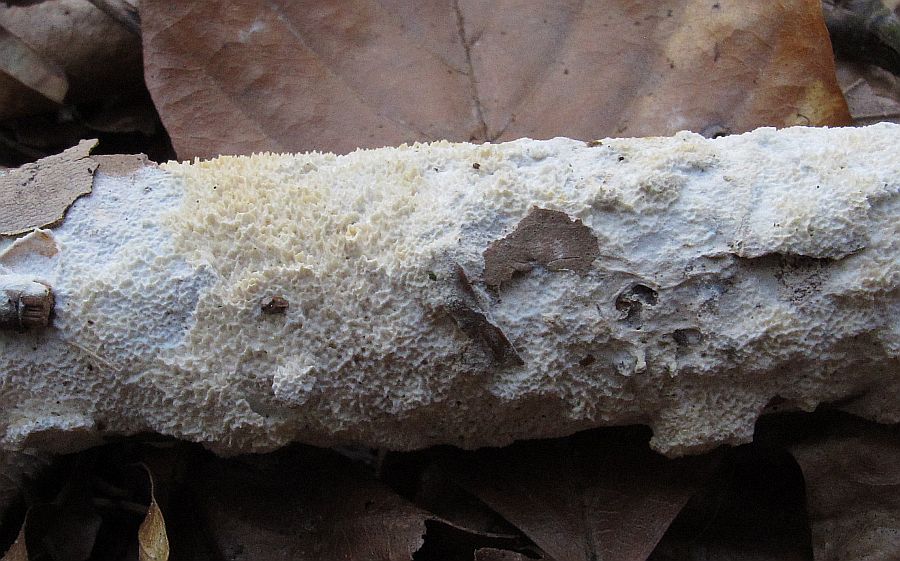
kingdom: Fungi
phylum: Basidiomycota
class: Agaricomycetes
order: Hymenochaetales
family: Schizoporaceae
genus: Schizopora
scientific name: Schizopora paradoxa
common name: hvid tandsvamp
